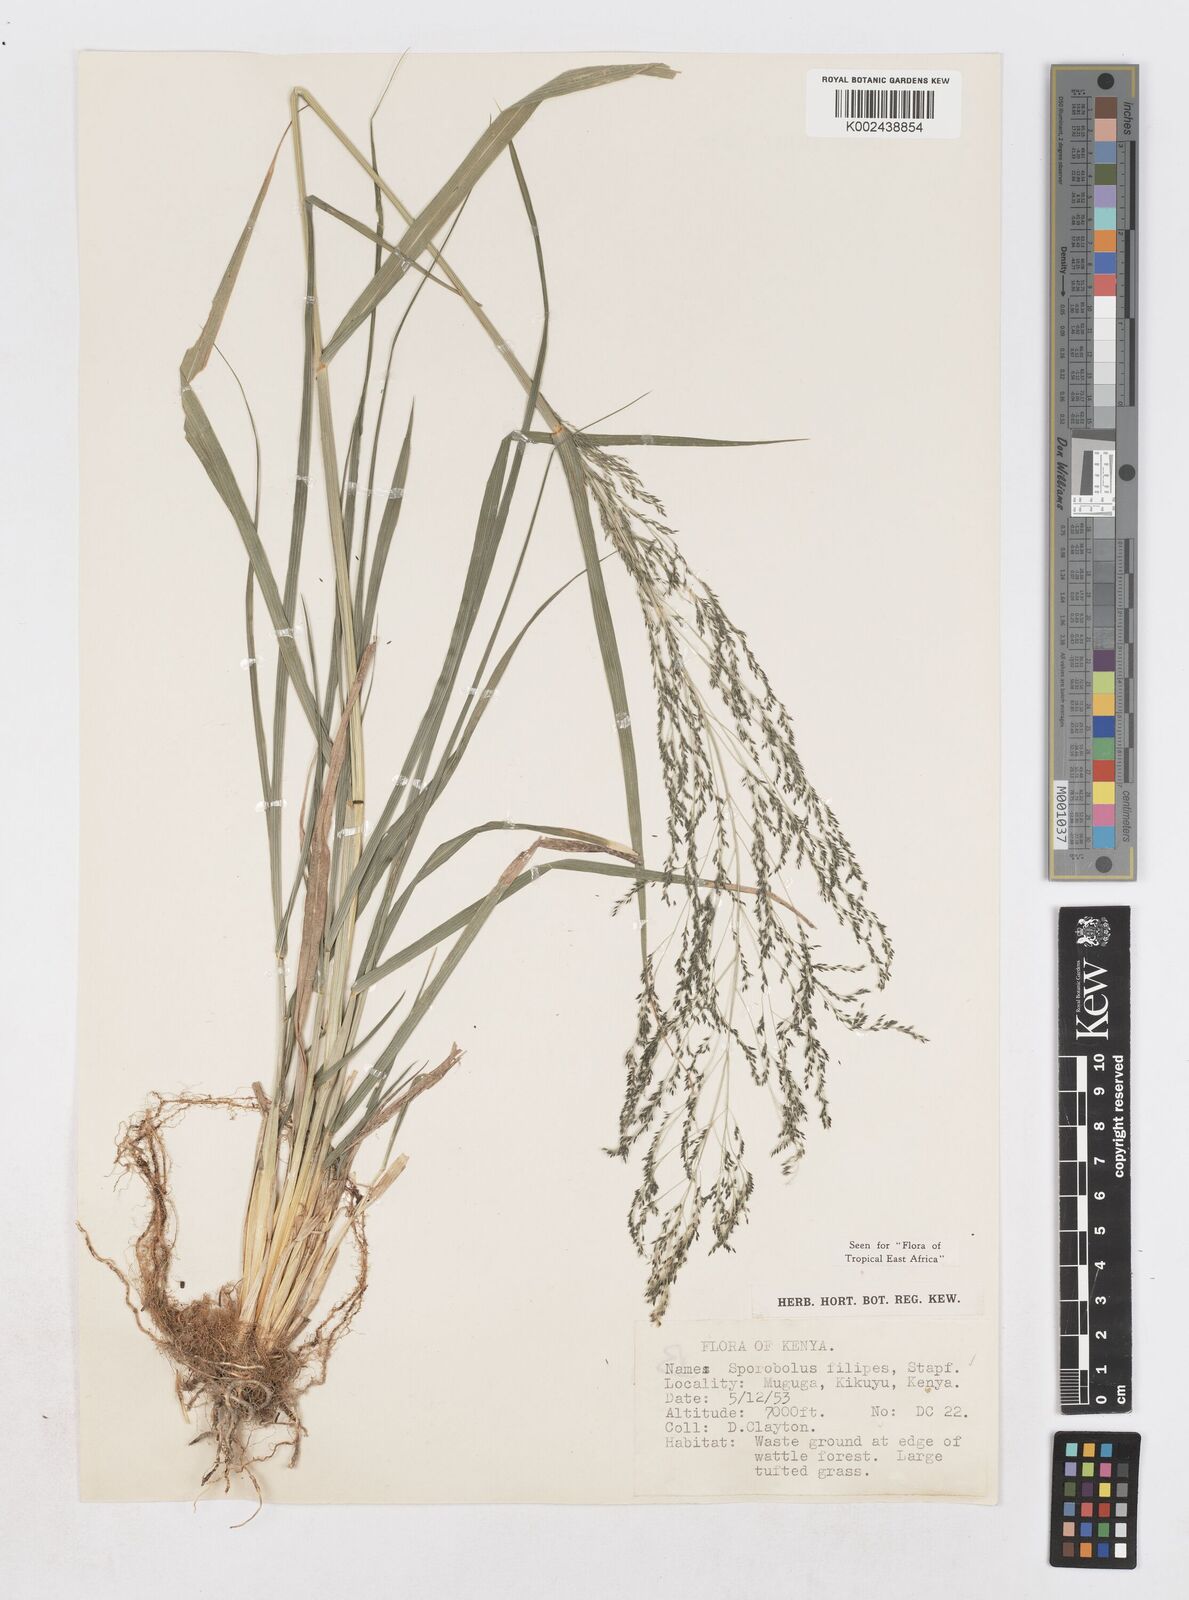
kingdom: Plantae
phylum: Tracheophyta
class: Liliopsida
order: Poales
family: Poaceae
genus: Sporobolus
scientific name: Sporobolus agrostoides
